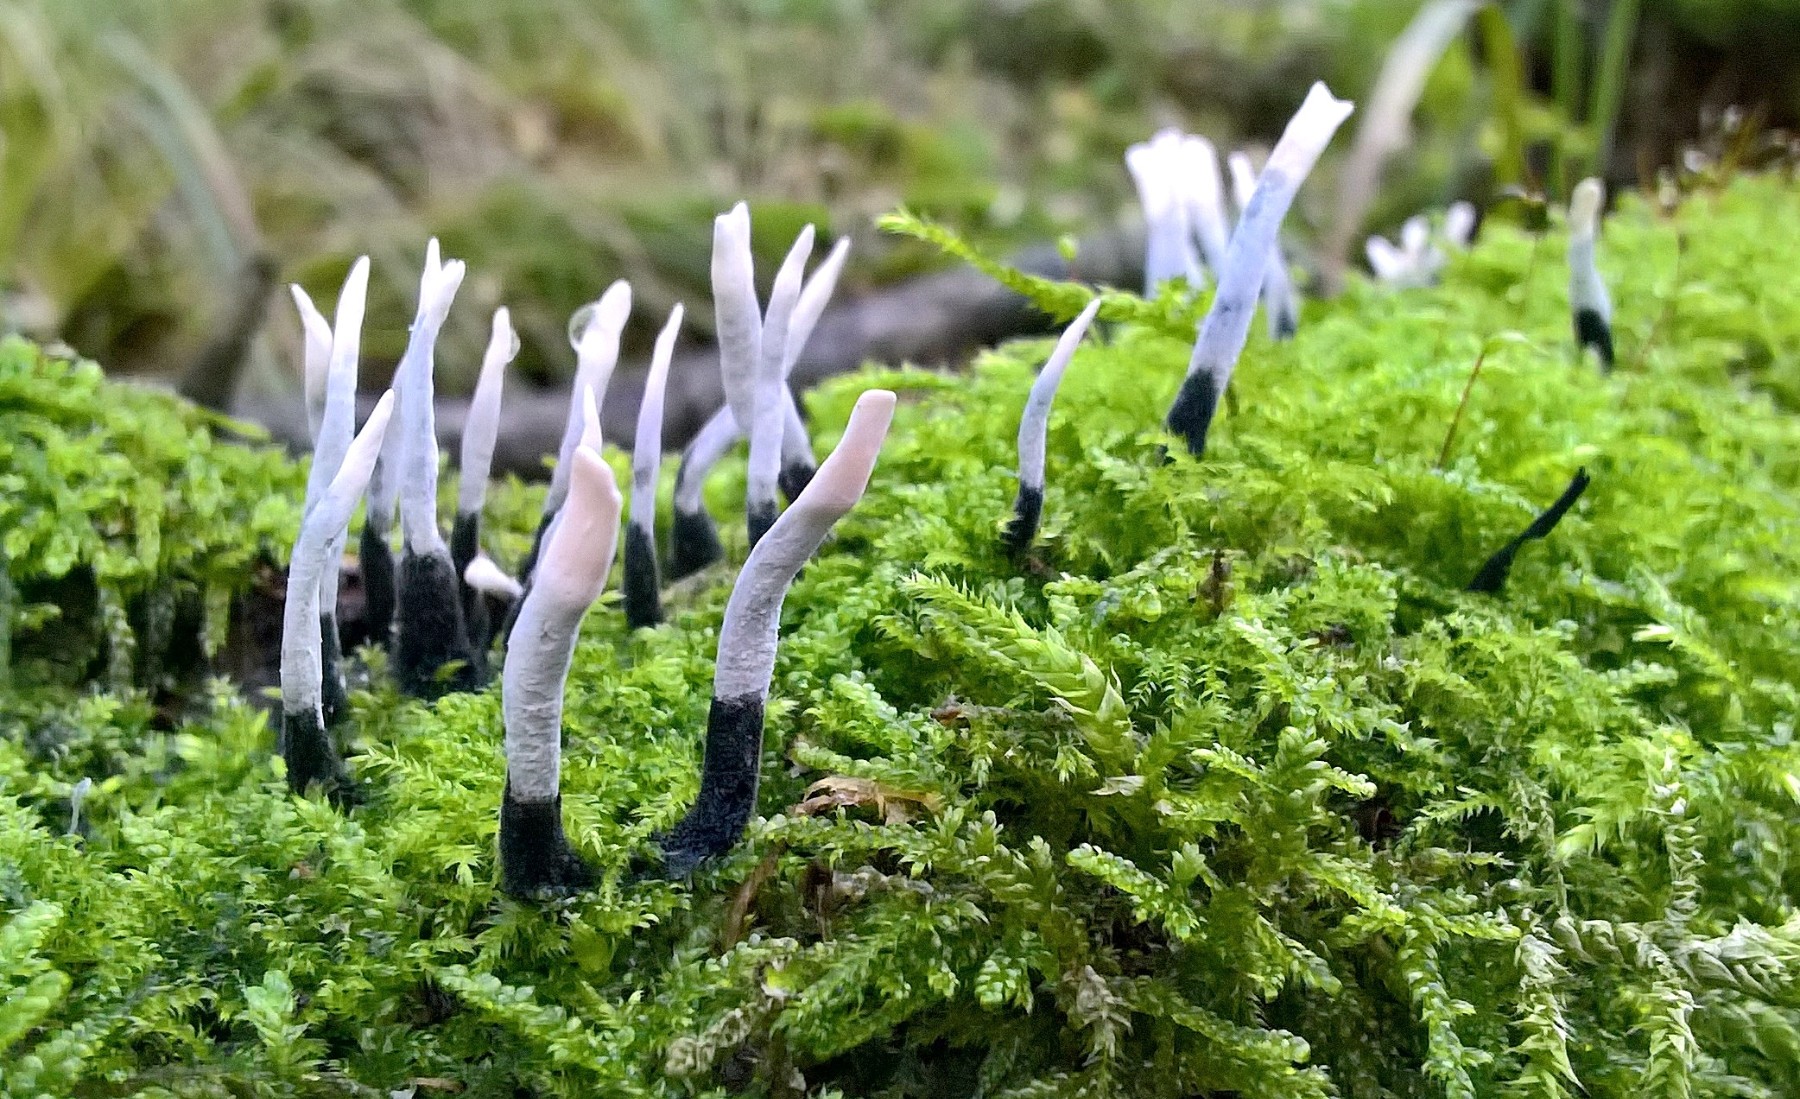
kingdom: Fungi
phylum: Ascomycota
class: Sordariomycetes
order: Xylariales
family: Xylariaceae
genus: Xylaria
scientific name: Xylaria hypoxylon
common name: grenet stødsvamp
